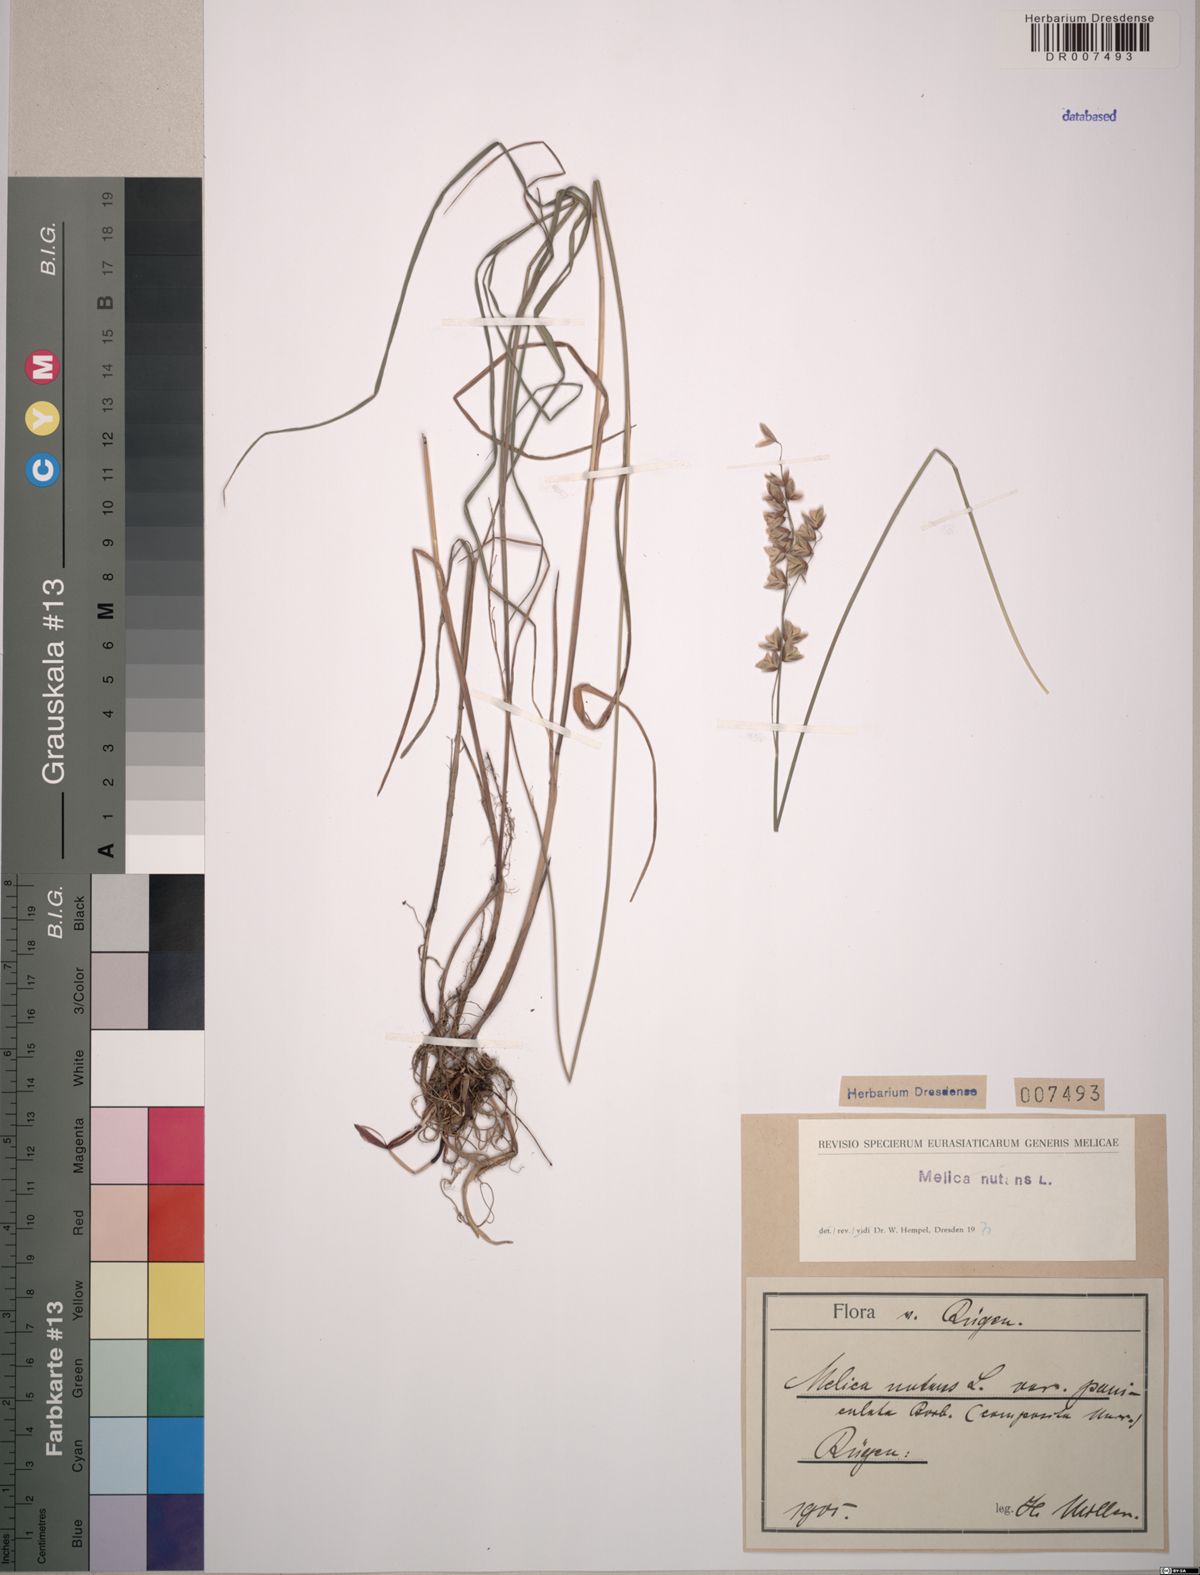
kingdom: Plantae
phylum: Tracheophyta
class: Liliopsida
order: Poales
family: Poaceae
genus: Melica
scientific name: Melica nutans
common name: Mountain melick
